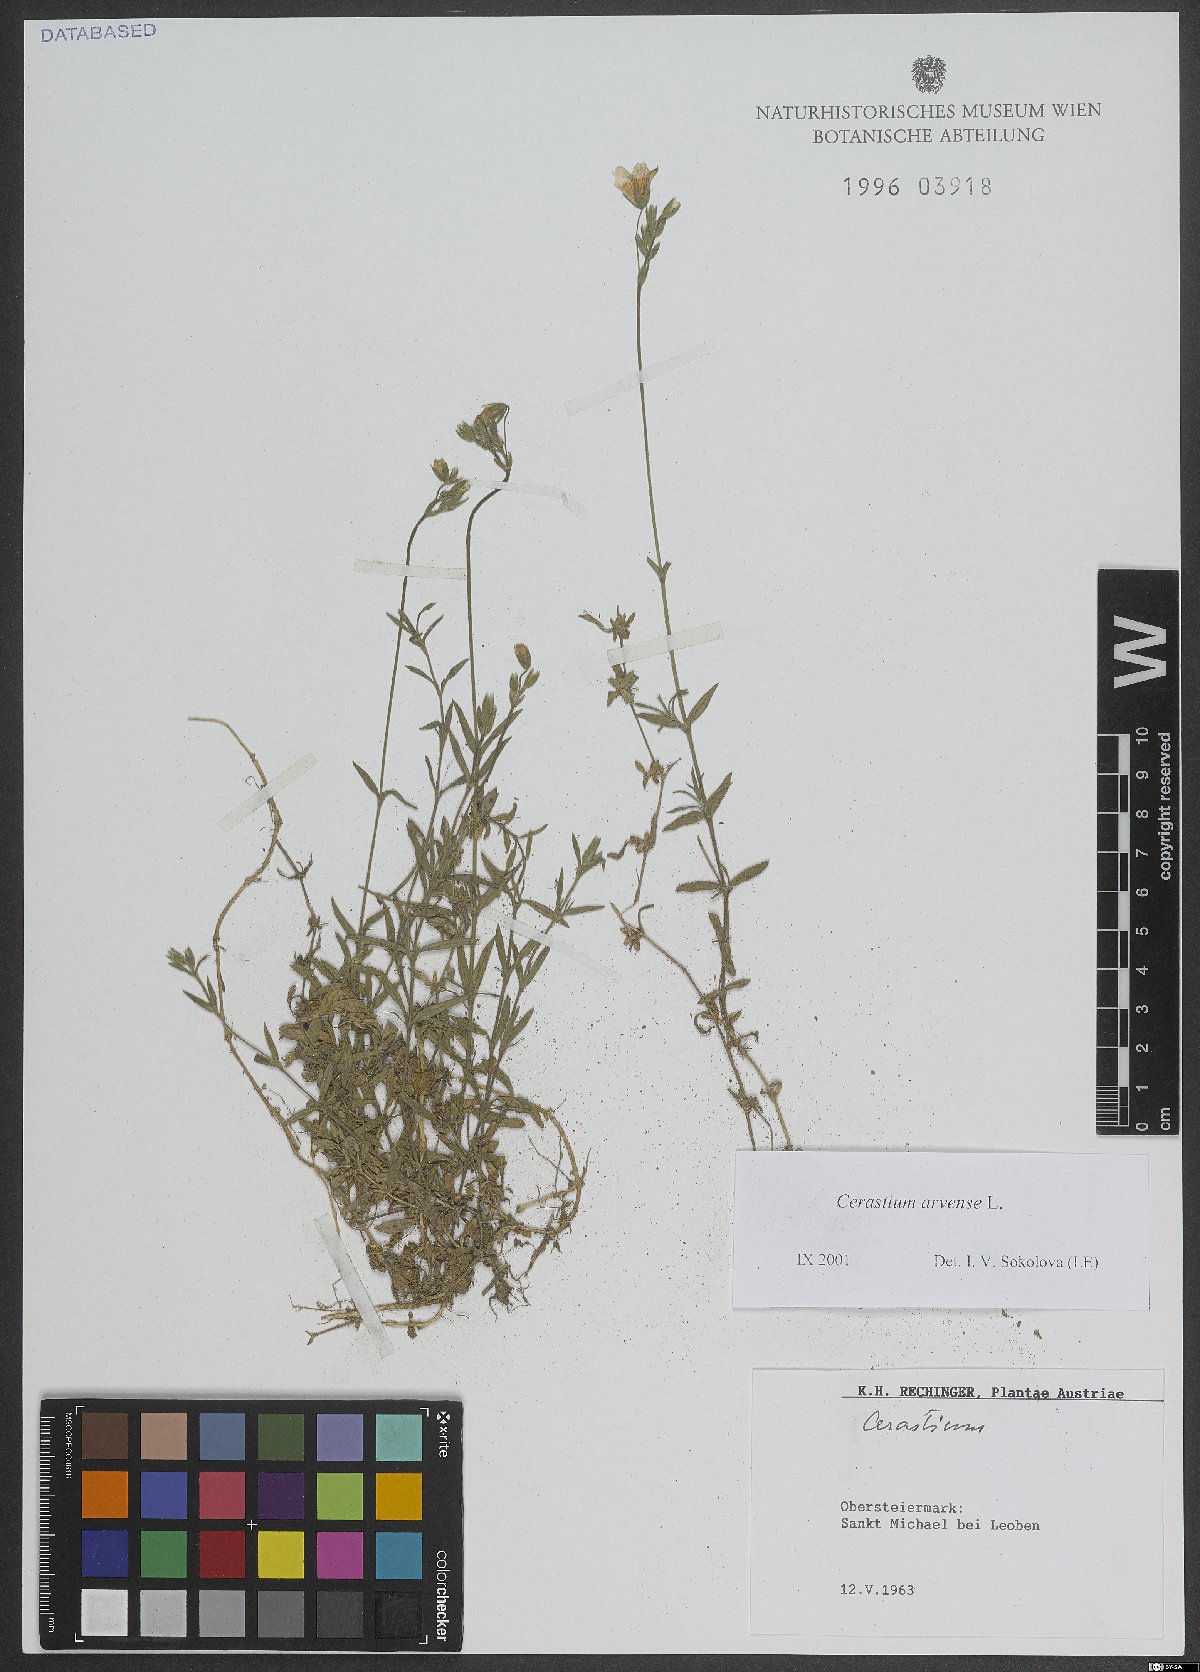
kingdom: Plantae
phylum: Tracheophyta
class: Magnoliopsida
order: Caryophyllales
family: Caryophyllaceae
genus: Cerastium
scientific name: Cerastium arvense
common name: Field mouse-ear
